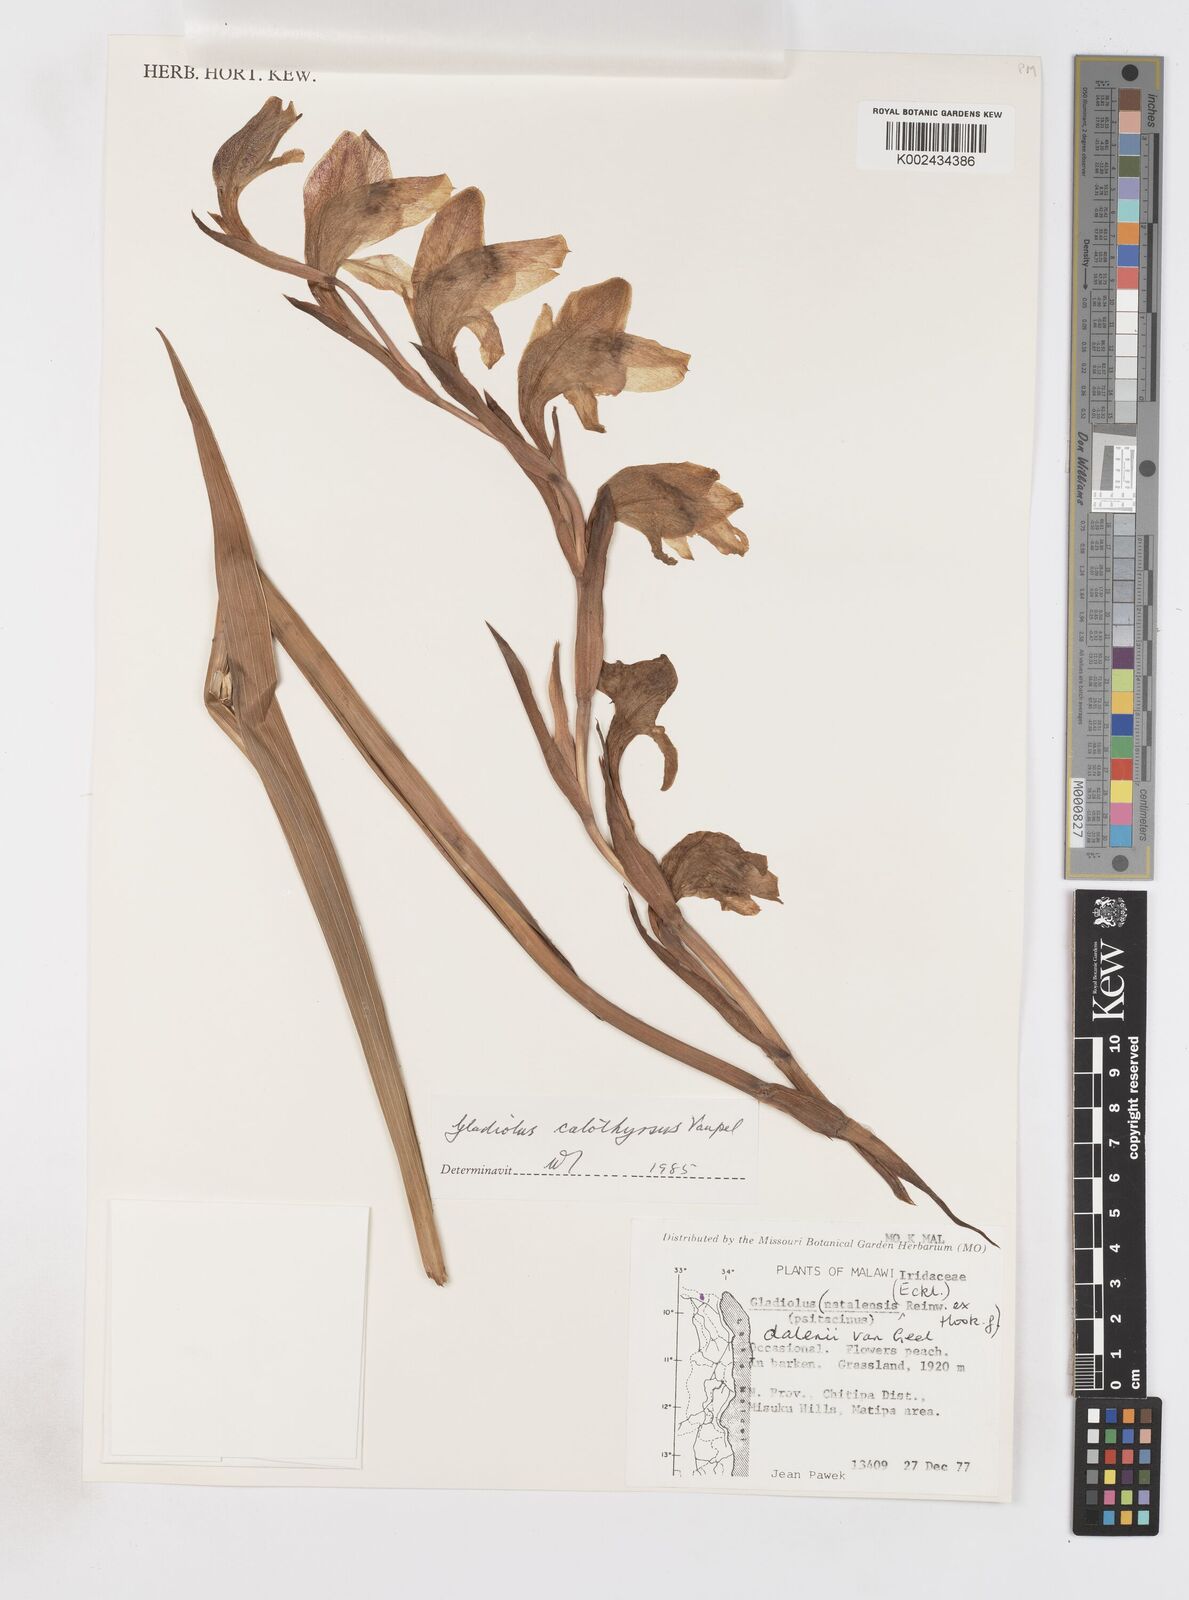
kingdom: Plantae
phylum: Tracheophyta
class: Liliopsida
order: Asparagales
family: Iridaceae
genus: Gladiolus
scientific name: Gladiolus dalenii
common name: Cornflag
